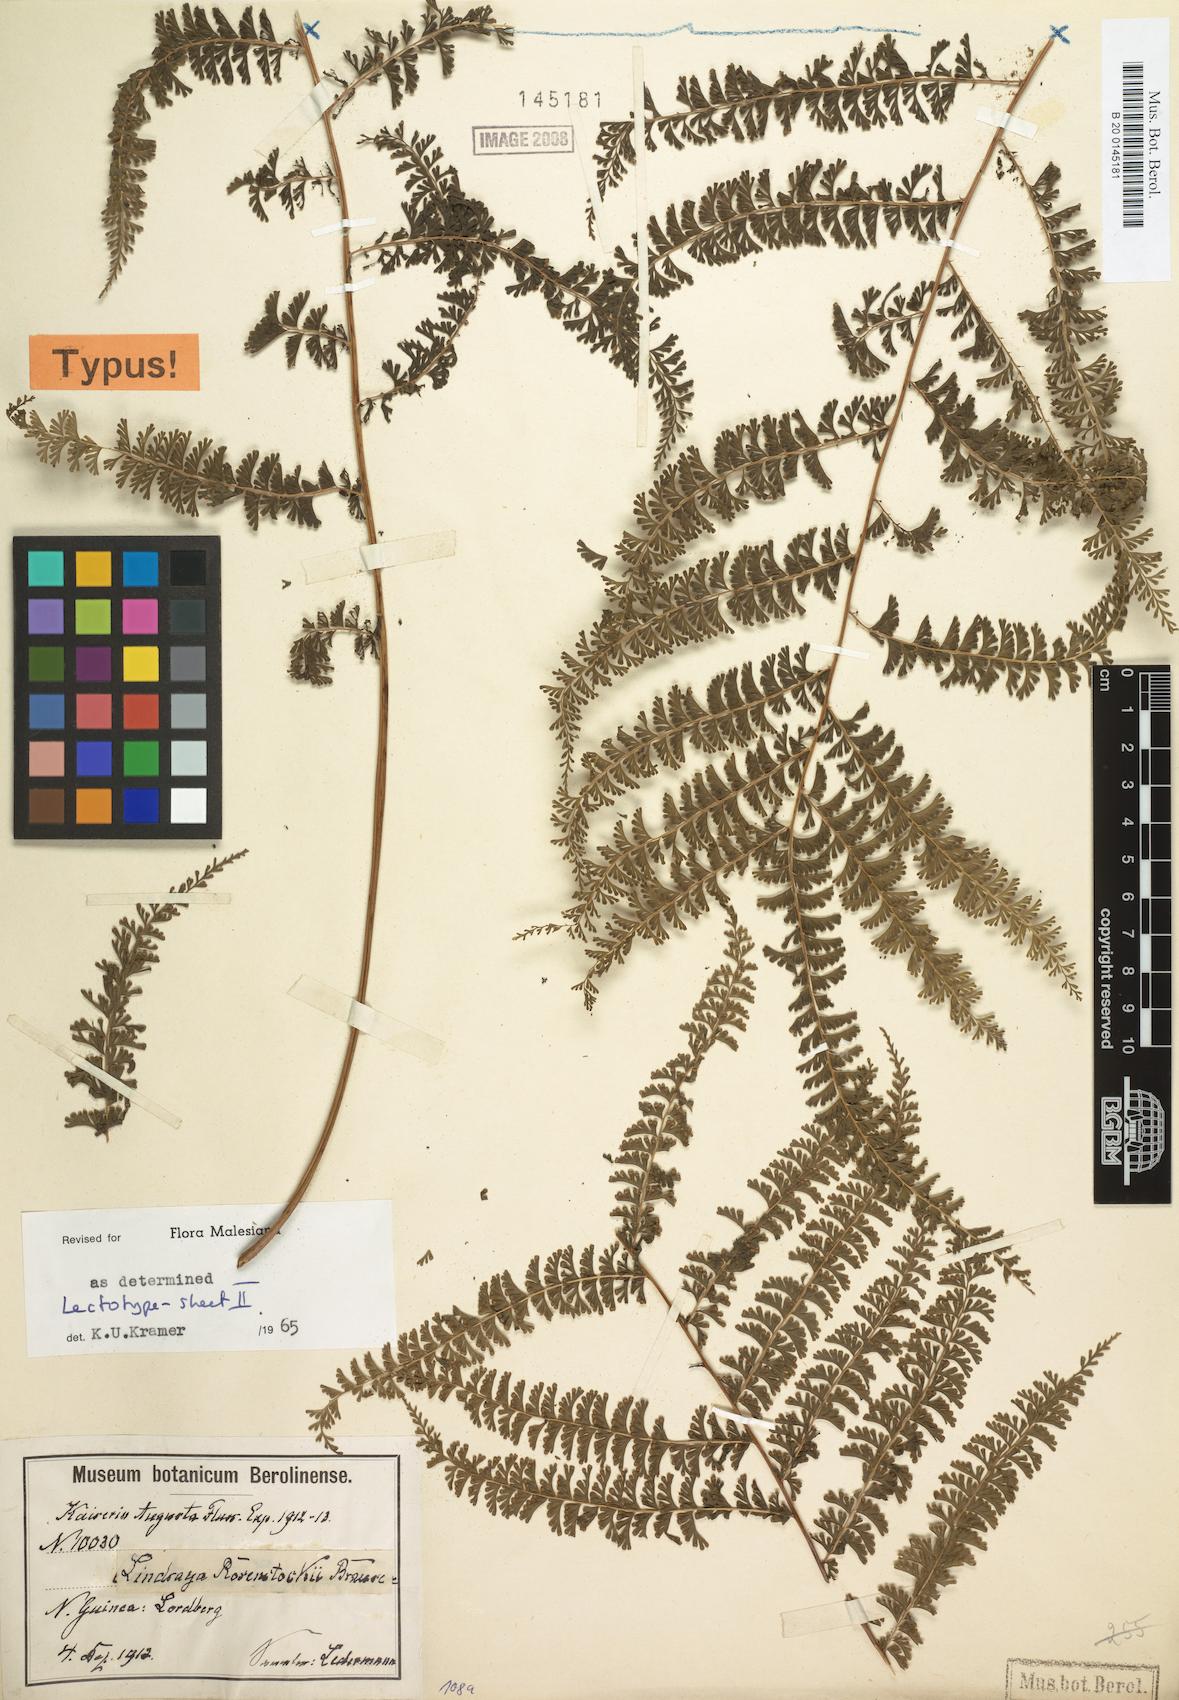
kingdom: Plantae
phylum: Tracheophyta
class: Polypodiopsida
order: Polypodiales
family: Lindsaeaceae
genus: Lindsaea
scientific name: Lindsaea rosenstockii
